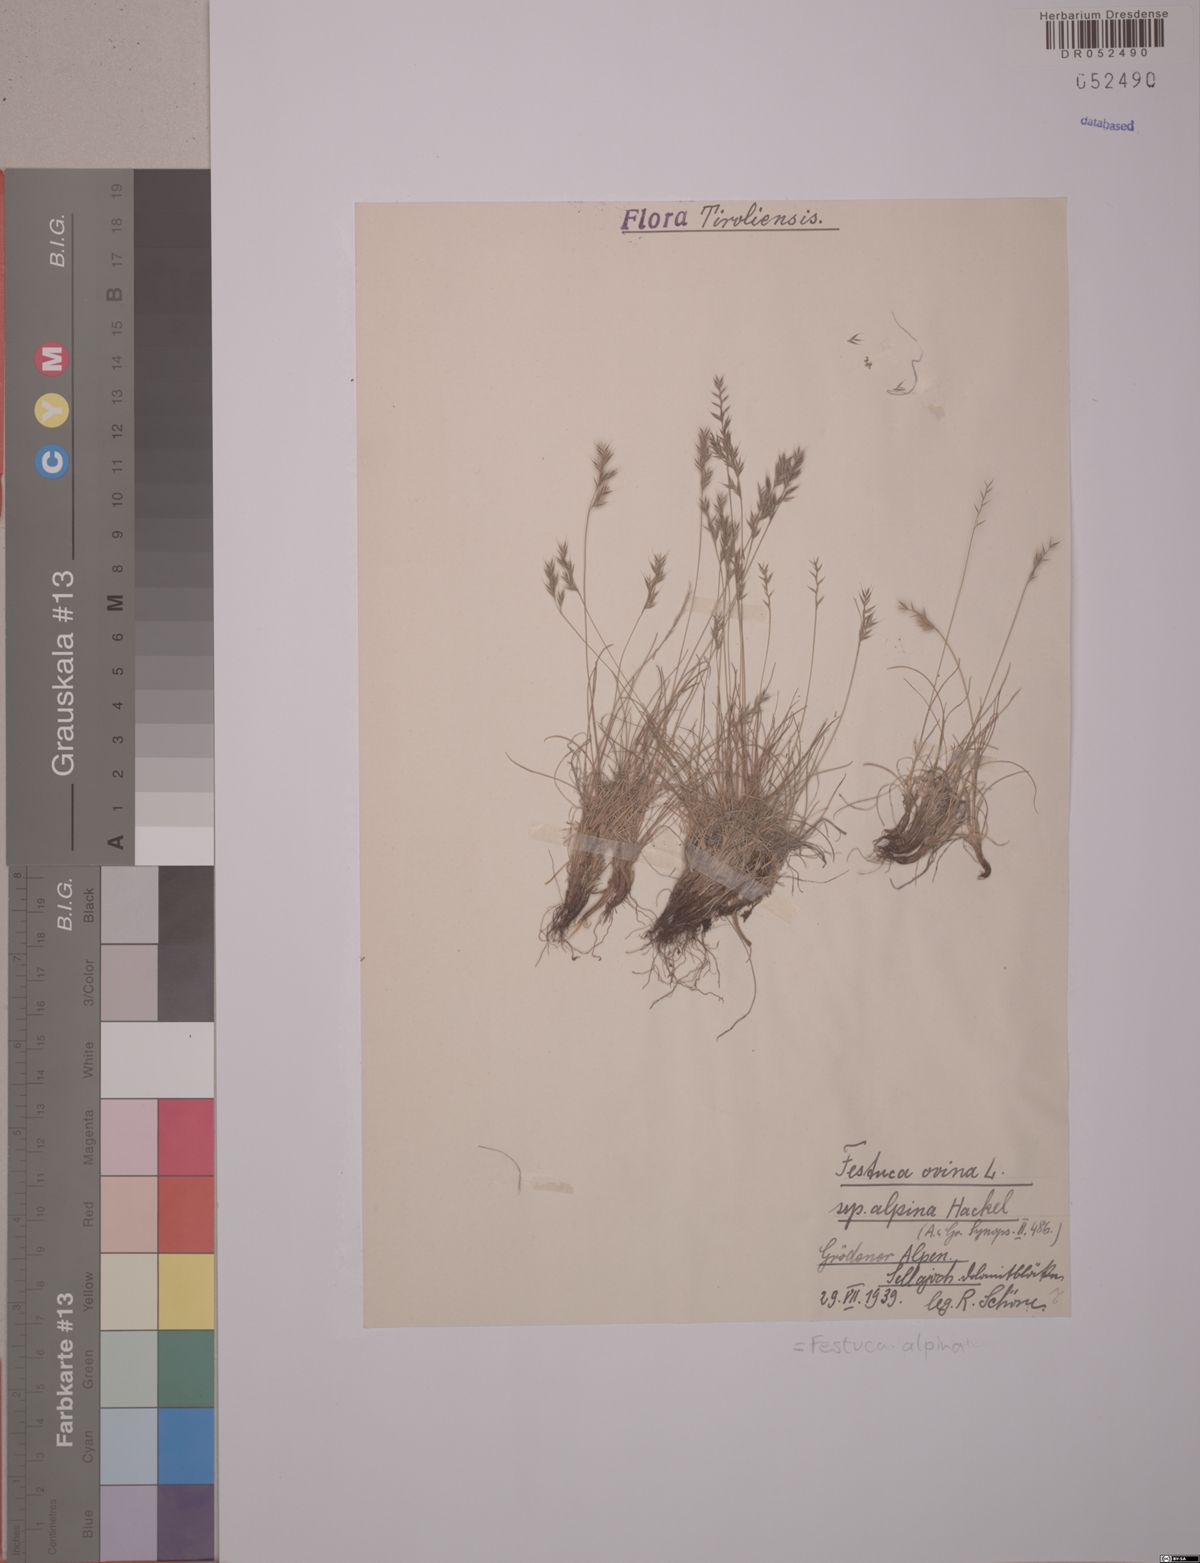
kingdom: Plantae
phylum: Tracheophyta
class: Liliopsida
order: Poales
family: Poaceae
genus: Festuca
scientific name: Festuca alpina
